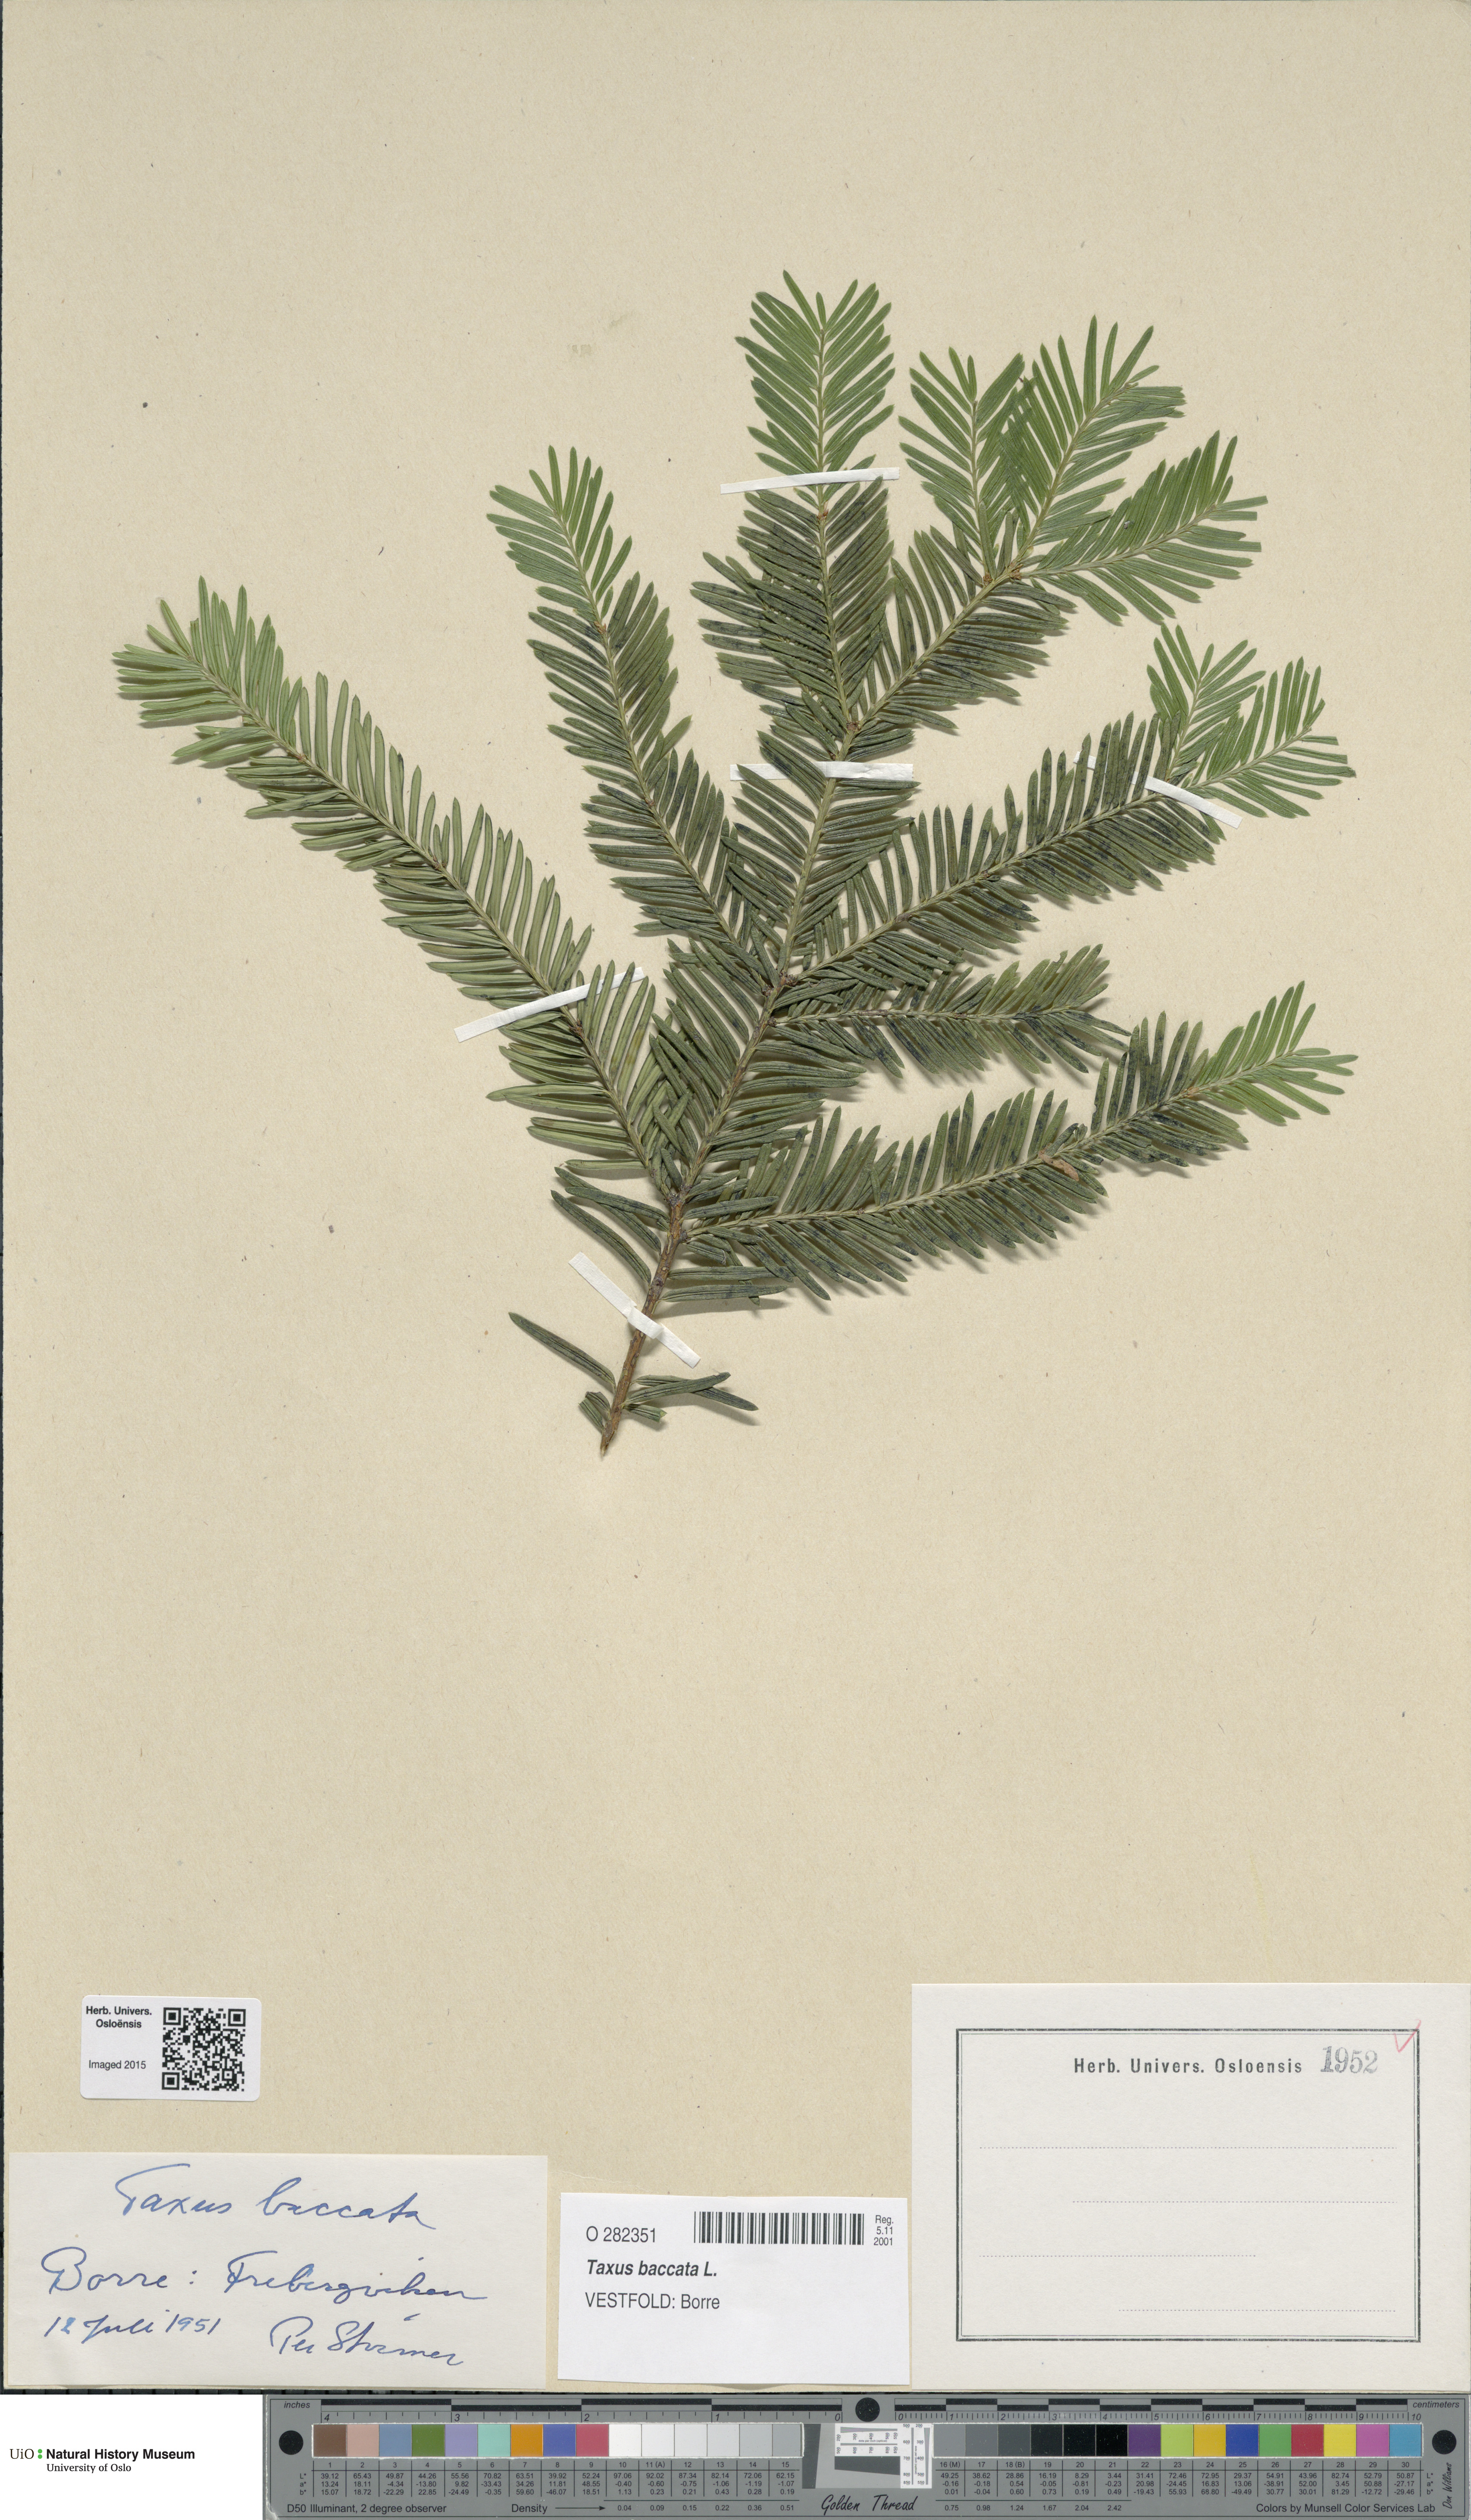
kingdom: Plantae
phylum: Tracheophyta
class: Pinopsida
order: Pinales
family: Taxaceae
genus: Taxus
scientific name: Taxus baccata
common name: Yew
